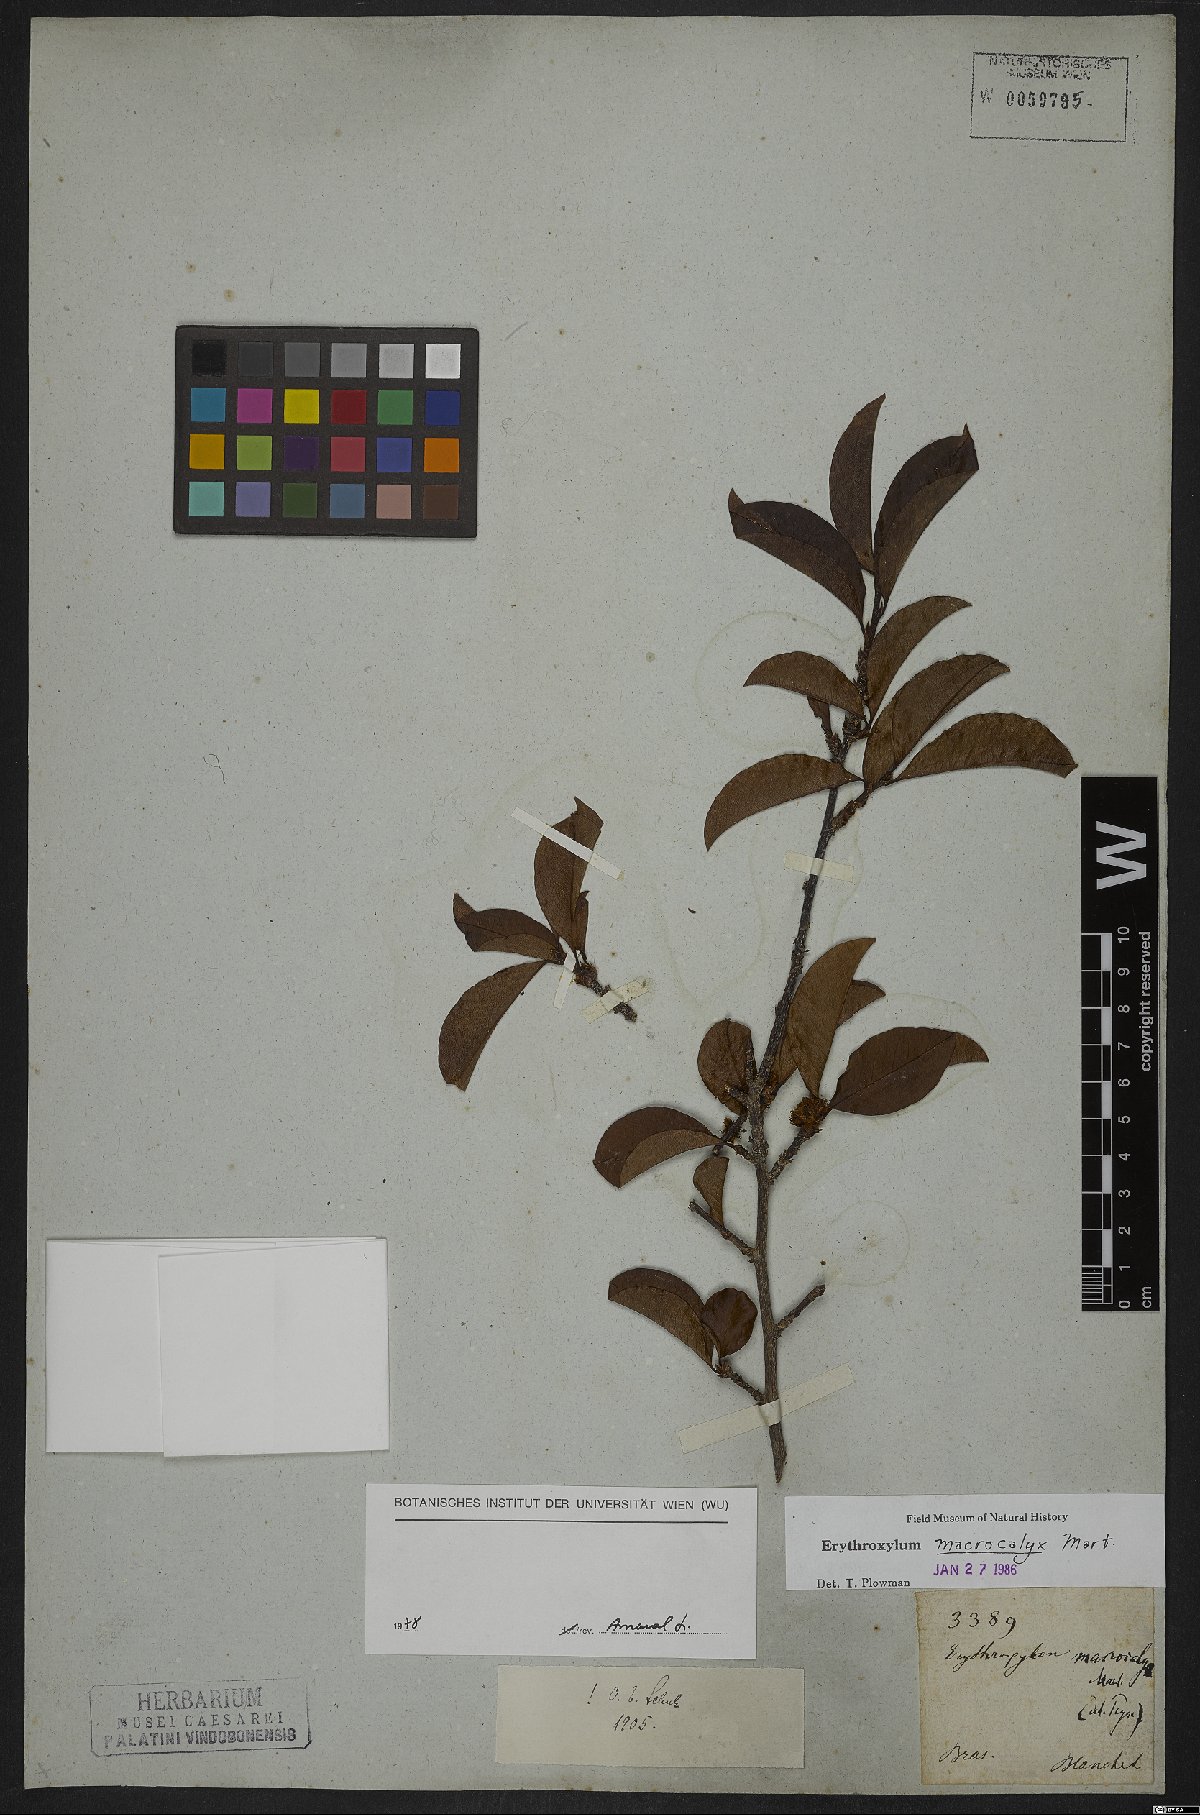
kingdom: Plantae
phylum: Tracheophyta
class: Magnoliopsida
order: Malpighiales
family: Erythroxylaceae
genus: Erythroxylum
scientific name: Erythroxylum macrocalyx
